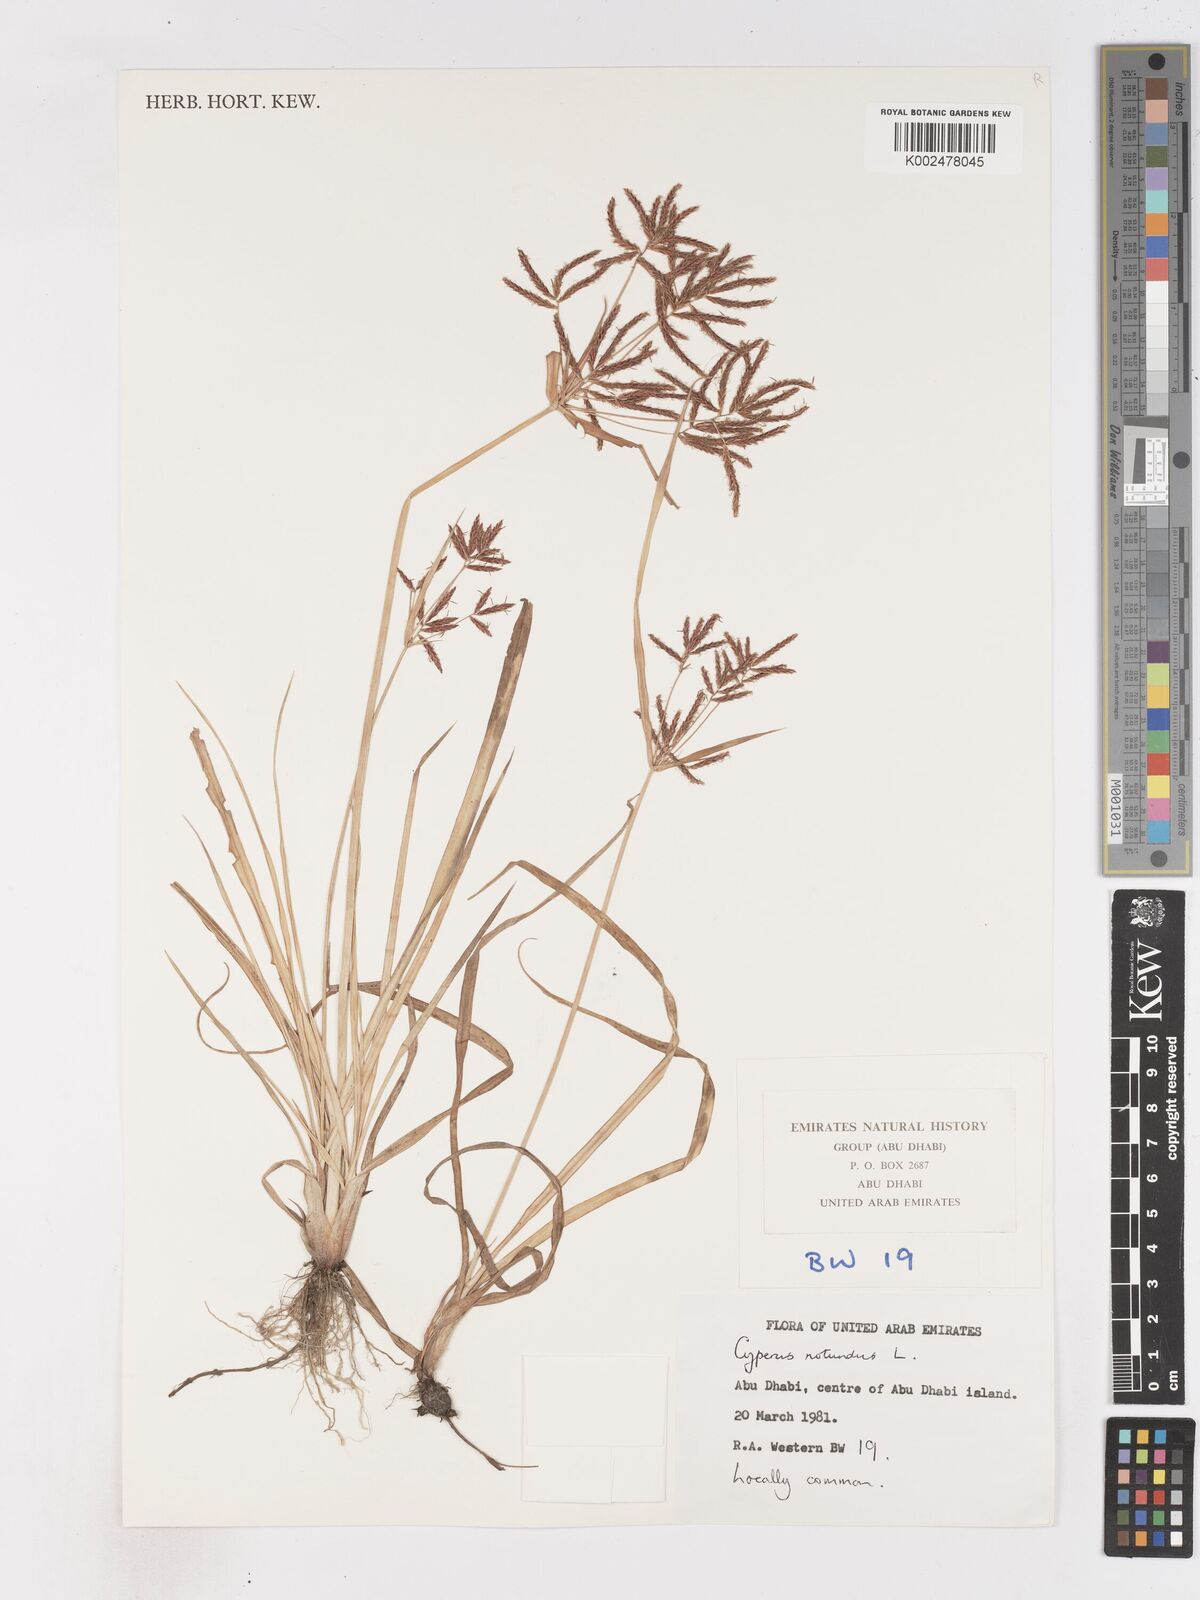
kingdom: Plantae
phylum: Tracheophyta
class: Liliopsida
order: Poales
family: Cyperaceae
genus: Cyperus
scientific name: Cyperus rotundus
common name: Nutgrass
